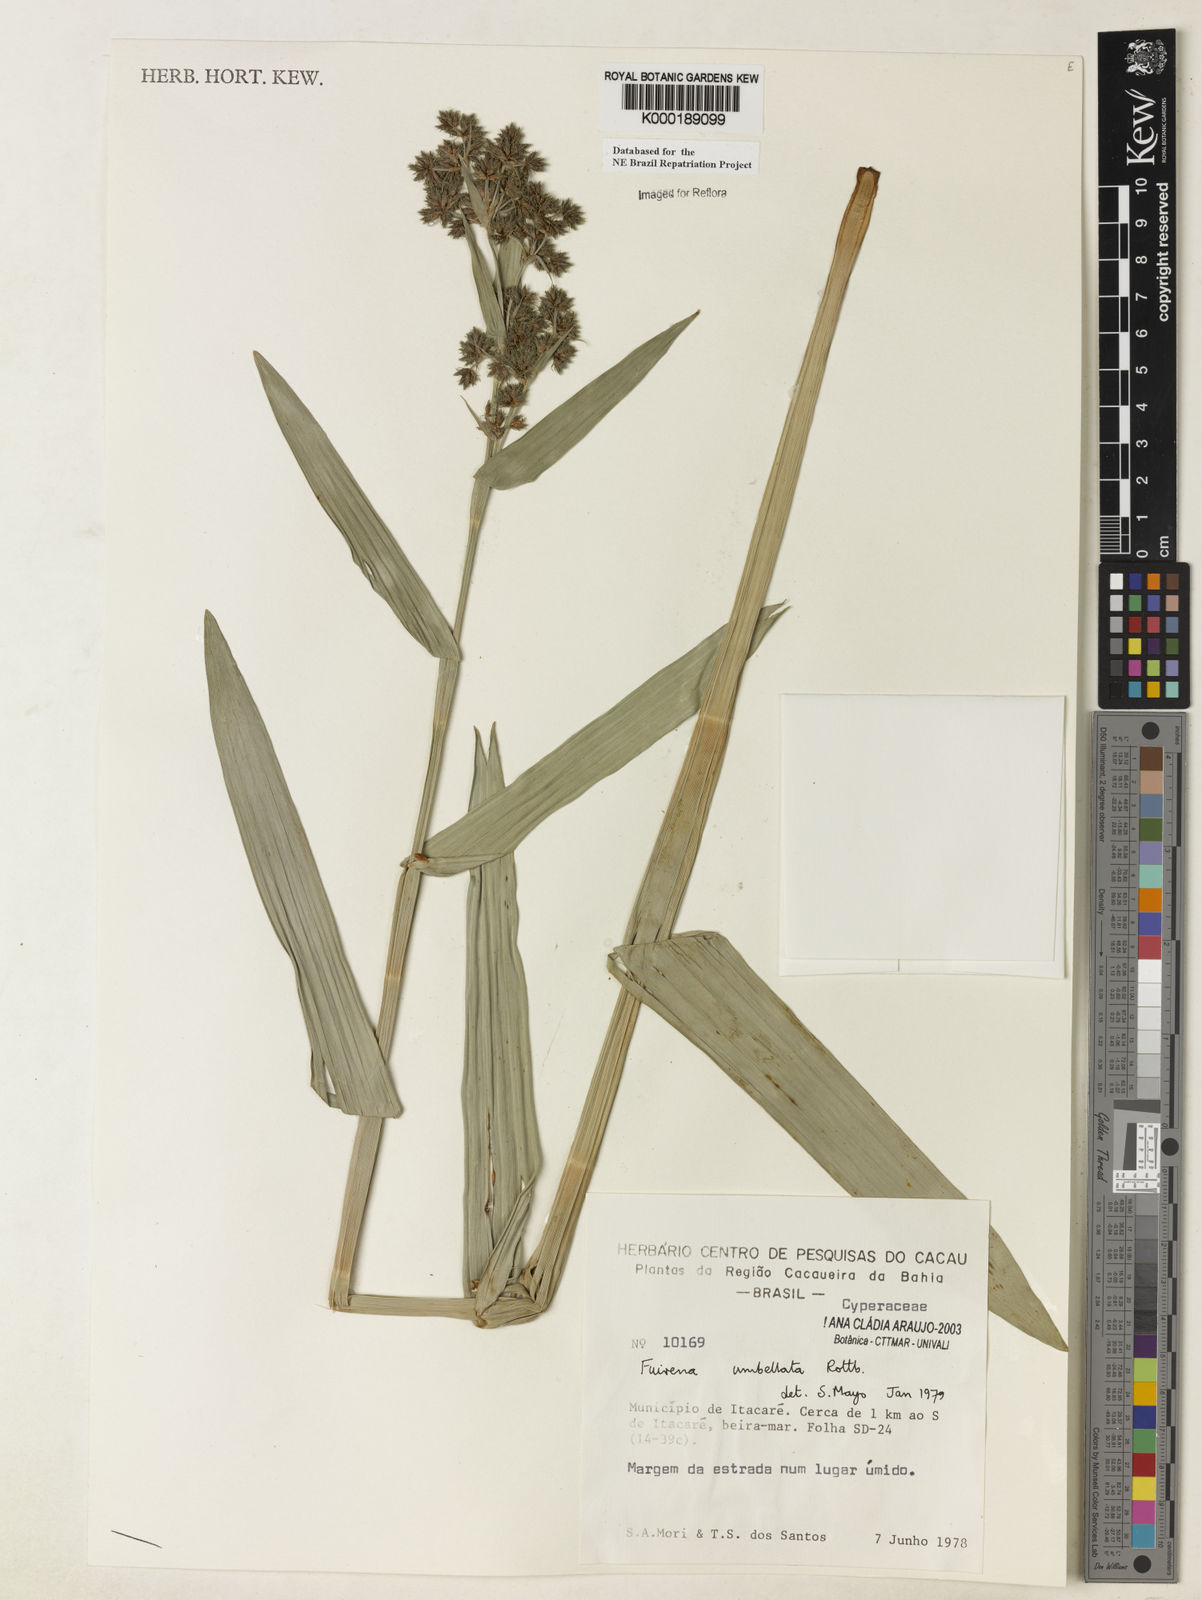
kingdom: Plantae
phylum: Tracheophyta
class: Liliopsida
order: Poales
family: Cyperaceae
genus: Fuirena
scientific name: Fuirena umbellata
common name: Yefen
